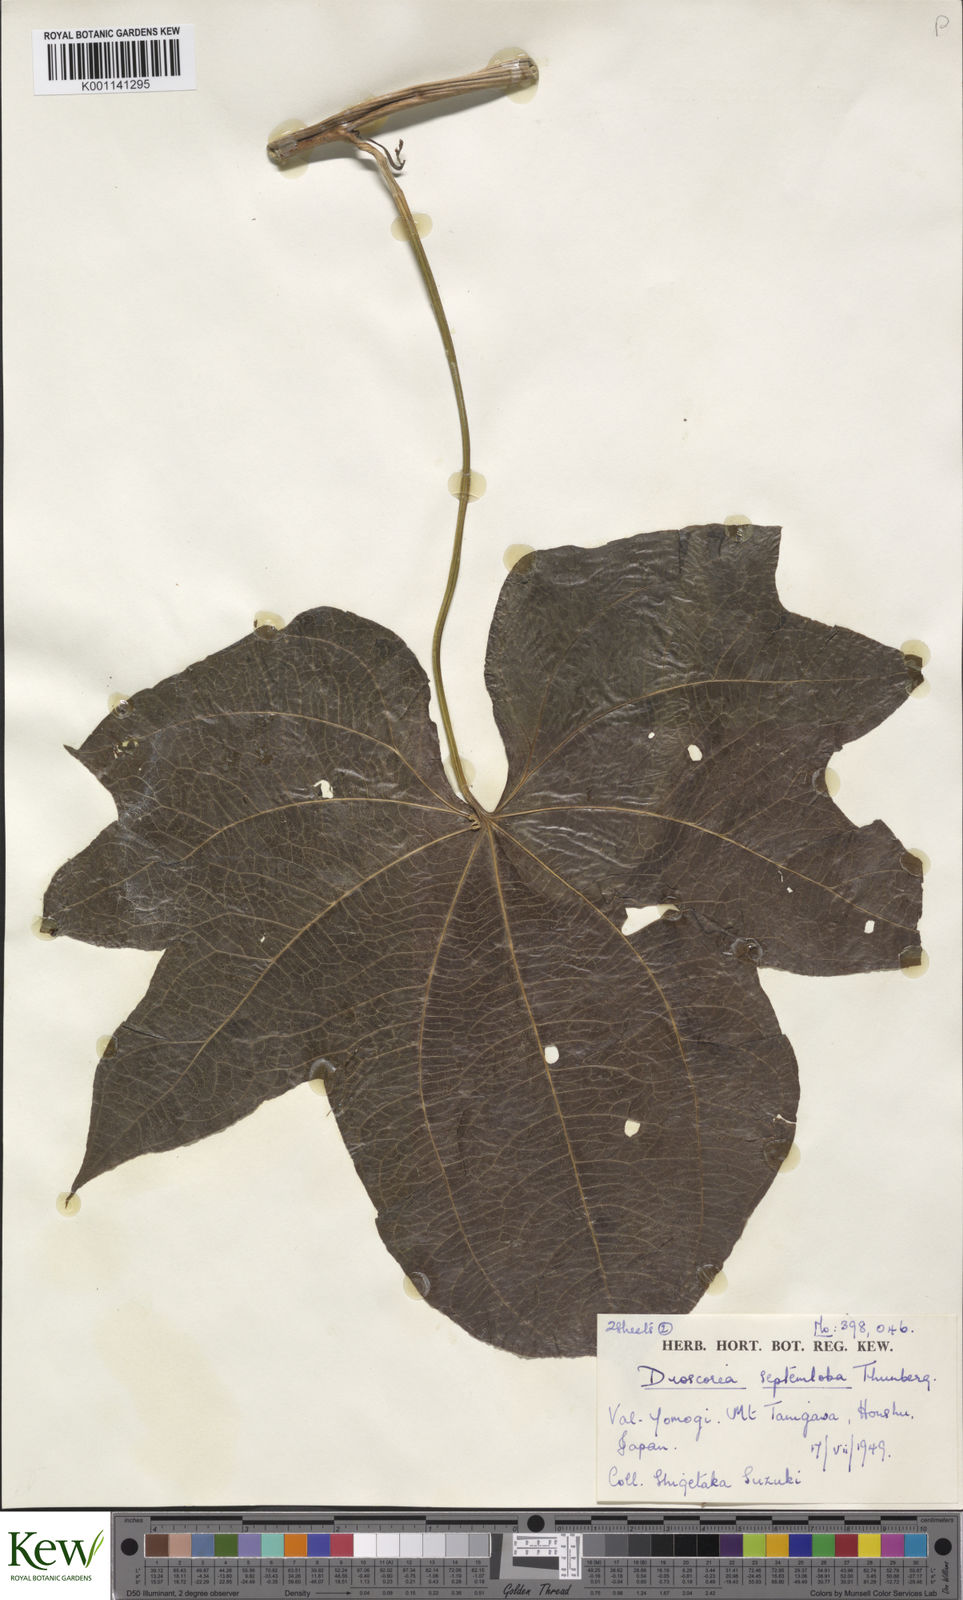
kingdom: Plantae
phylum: Tracheophyta
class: Liliopsida
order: Dioscoreales
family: Dioscoreaceae
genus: Dioscorea
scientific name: Dioscorea septemloba
